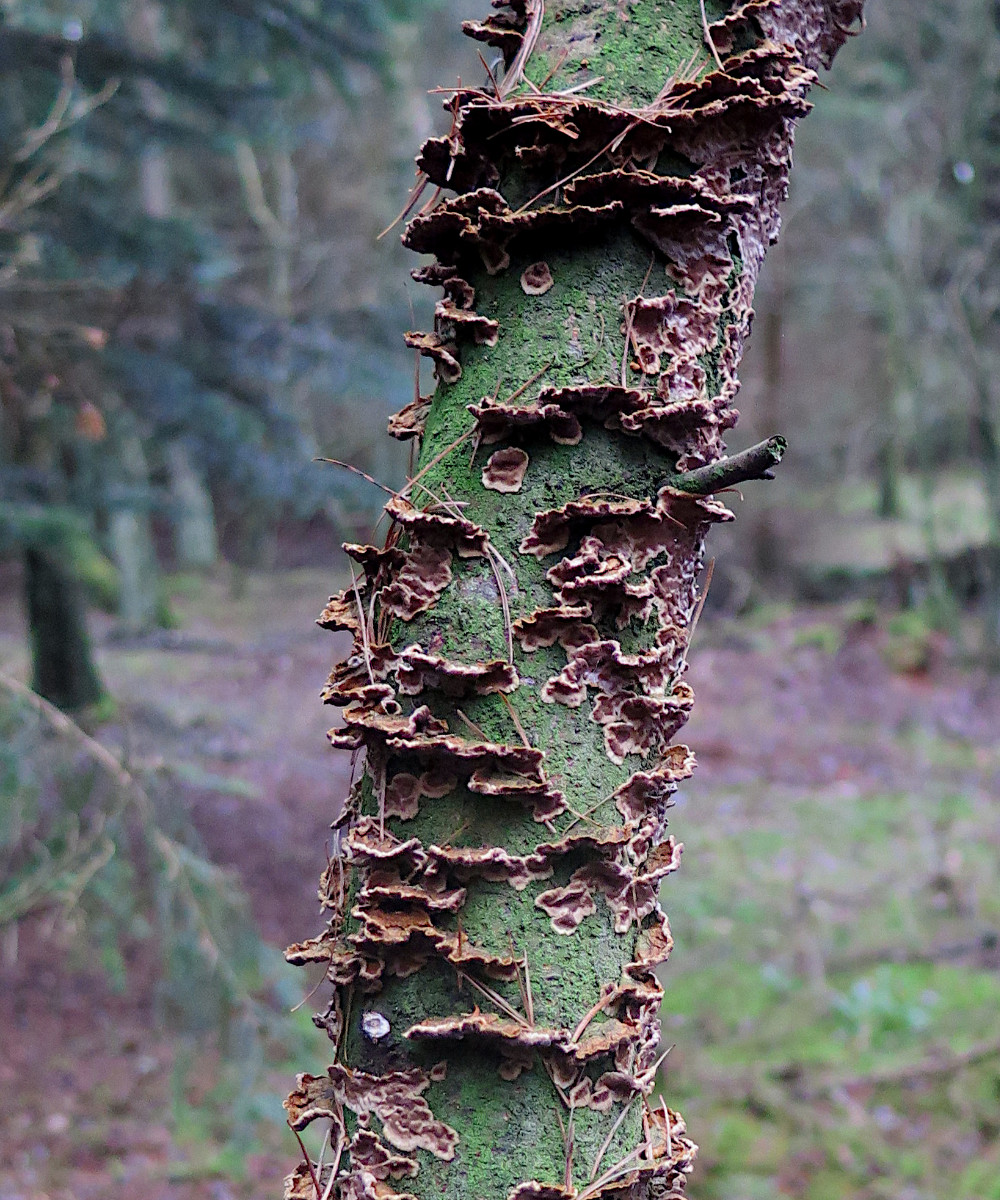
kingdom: Fungi
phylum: Basidiomycota
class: Agaricomycetes
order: Hymenochaetales
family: Hymenochaetaceae
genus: Hydnoporia
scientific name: Hydnoporia tabacina
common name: tobaksbrun ruslædersvamp
